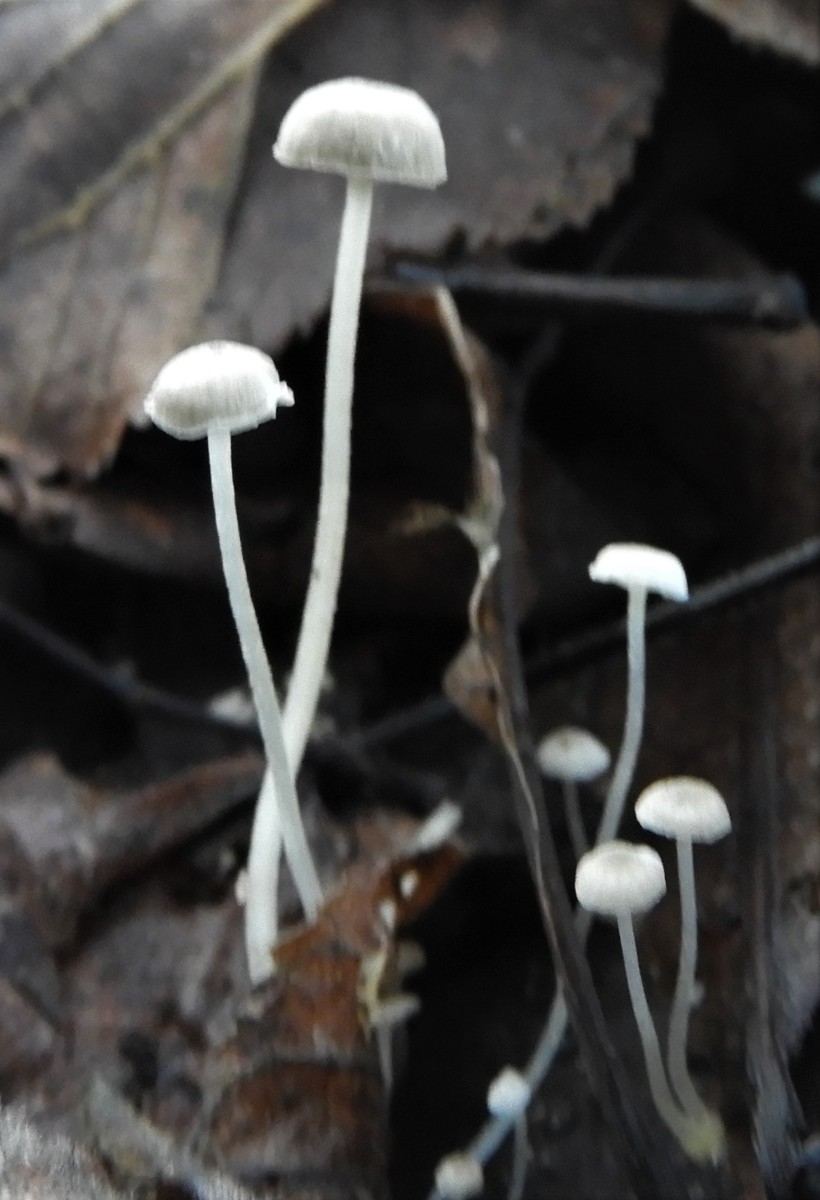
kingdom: Fungi
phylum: Basidiomycota
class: Agaricomycetes
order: Agaricales
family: Mycenaceae
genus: Mycena
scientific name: Mycena cinerella
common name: mel-huesvamp
